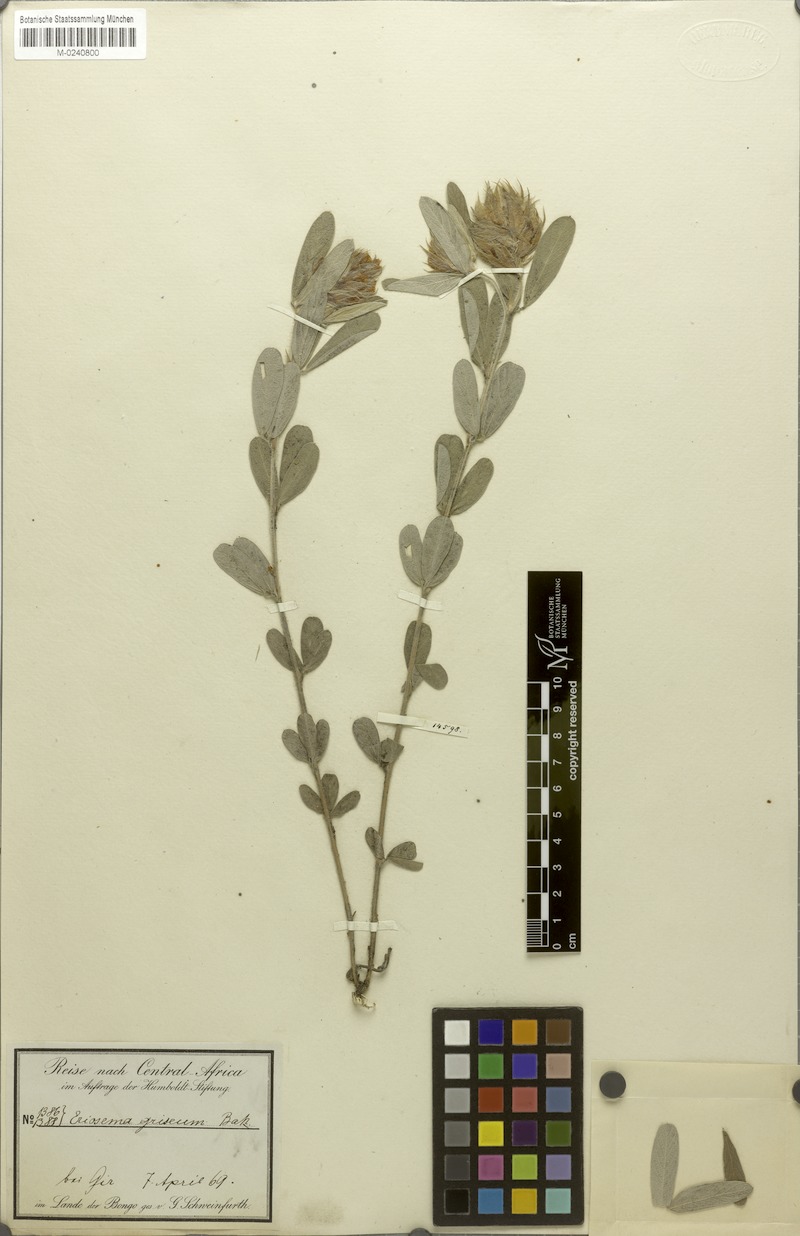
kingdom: Plantae
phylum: Tracheophyta
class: Magnoliopsida
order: Fabales
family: Fabaceae
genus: Eriosema
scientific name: Eriosema griseum
